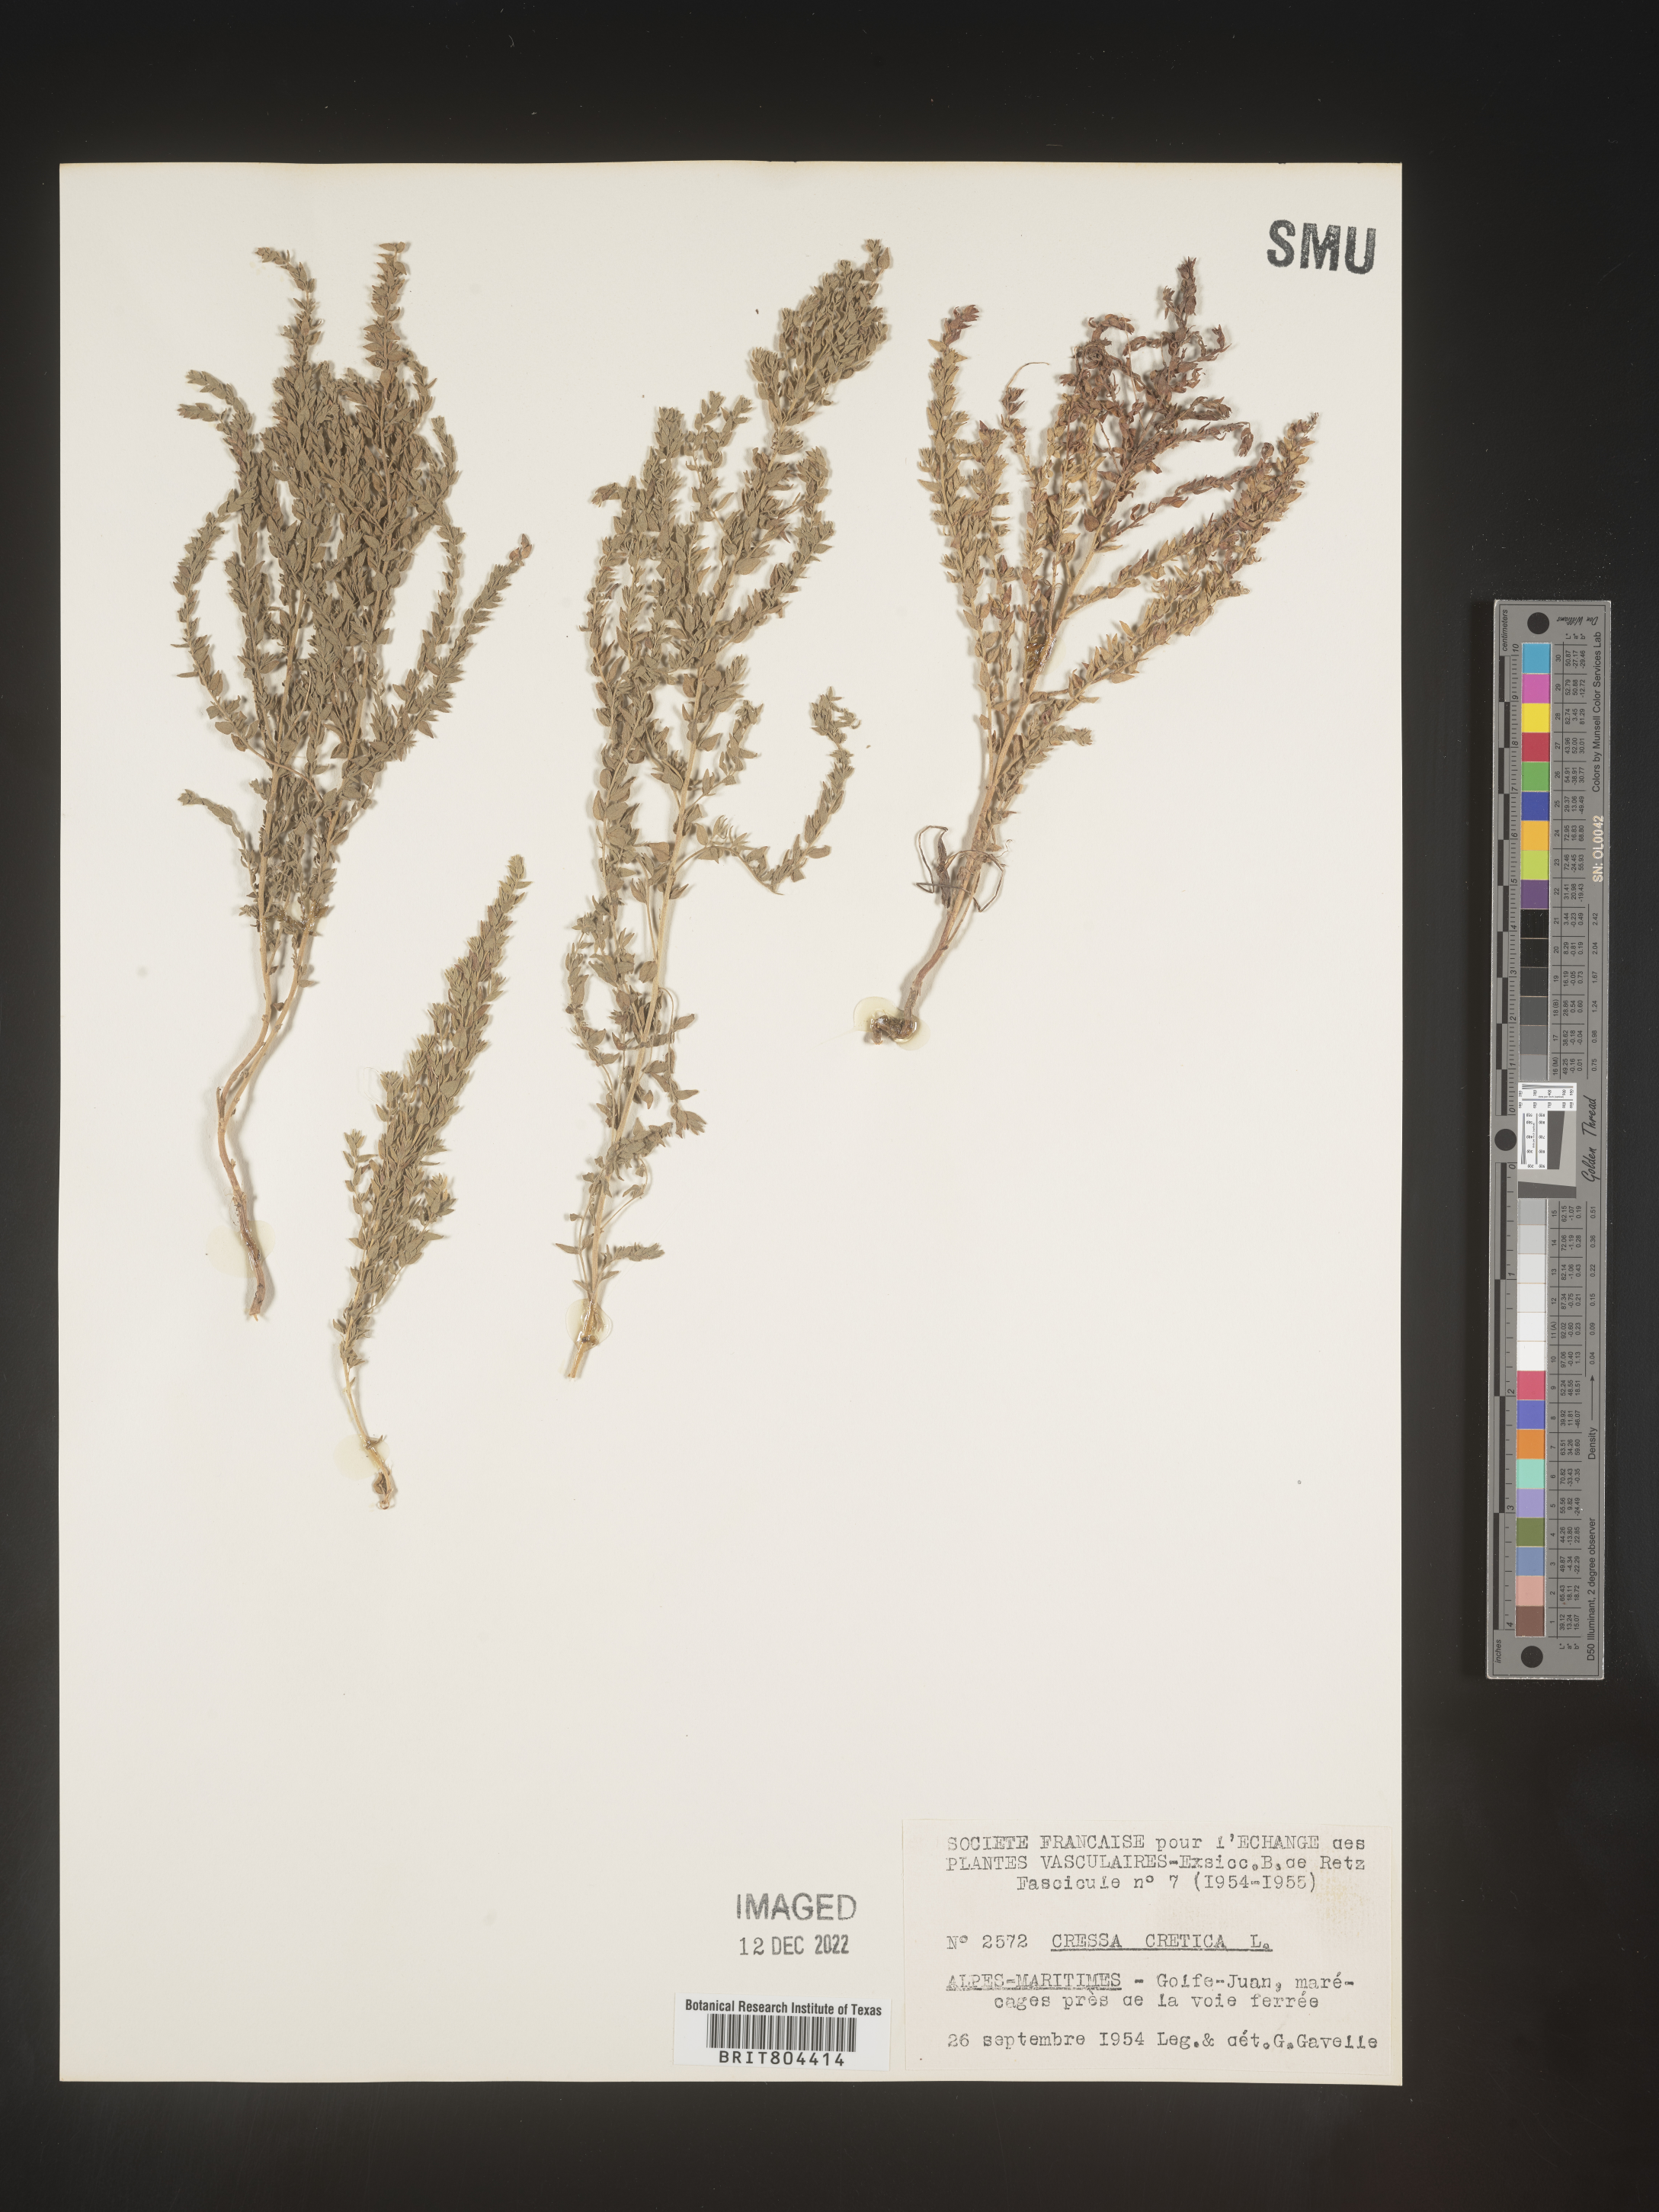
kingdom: Plantae
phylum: Tracheophyta
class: Magnoliopsida
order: Solanales
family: Convolvulaceae
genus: Cressa
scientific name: Cressa
